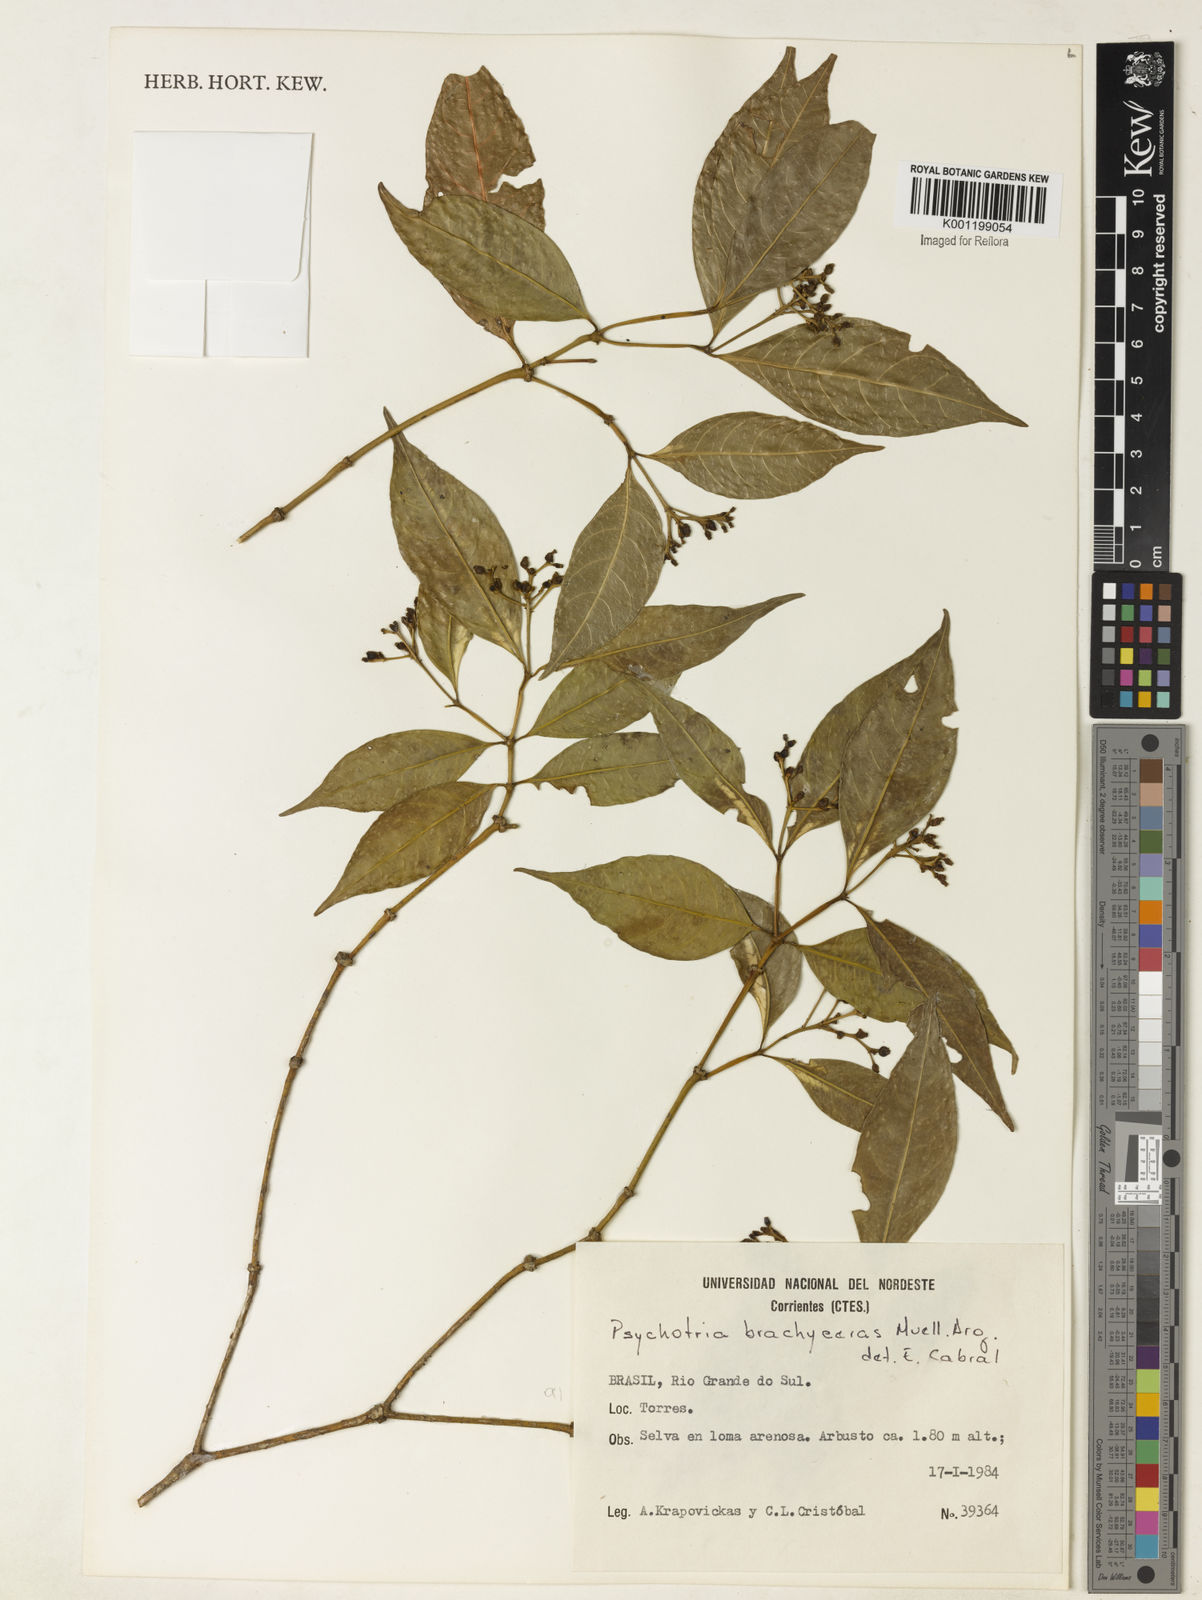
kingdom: Plantae
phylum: Tracheophyta
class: Magnoliopsida
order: Gentianales
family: Rubiaceae
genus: Psychotria
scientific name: Psychotria
